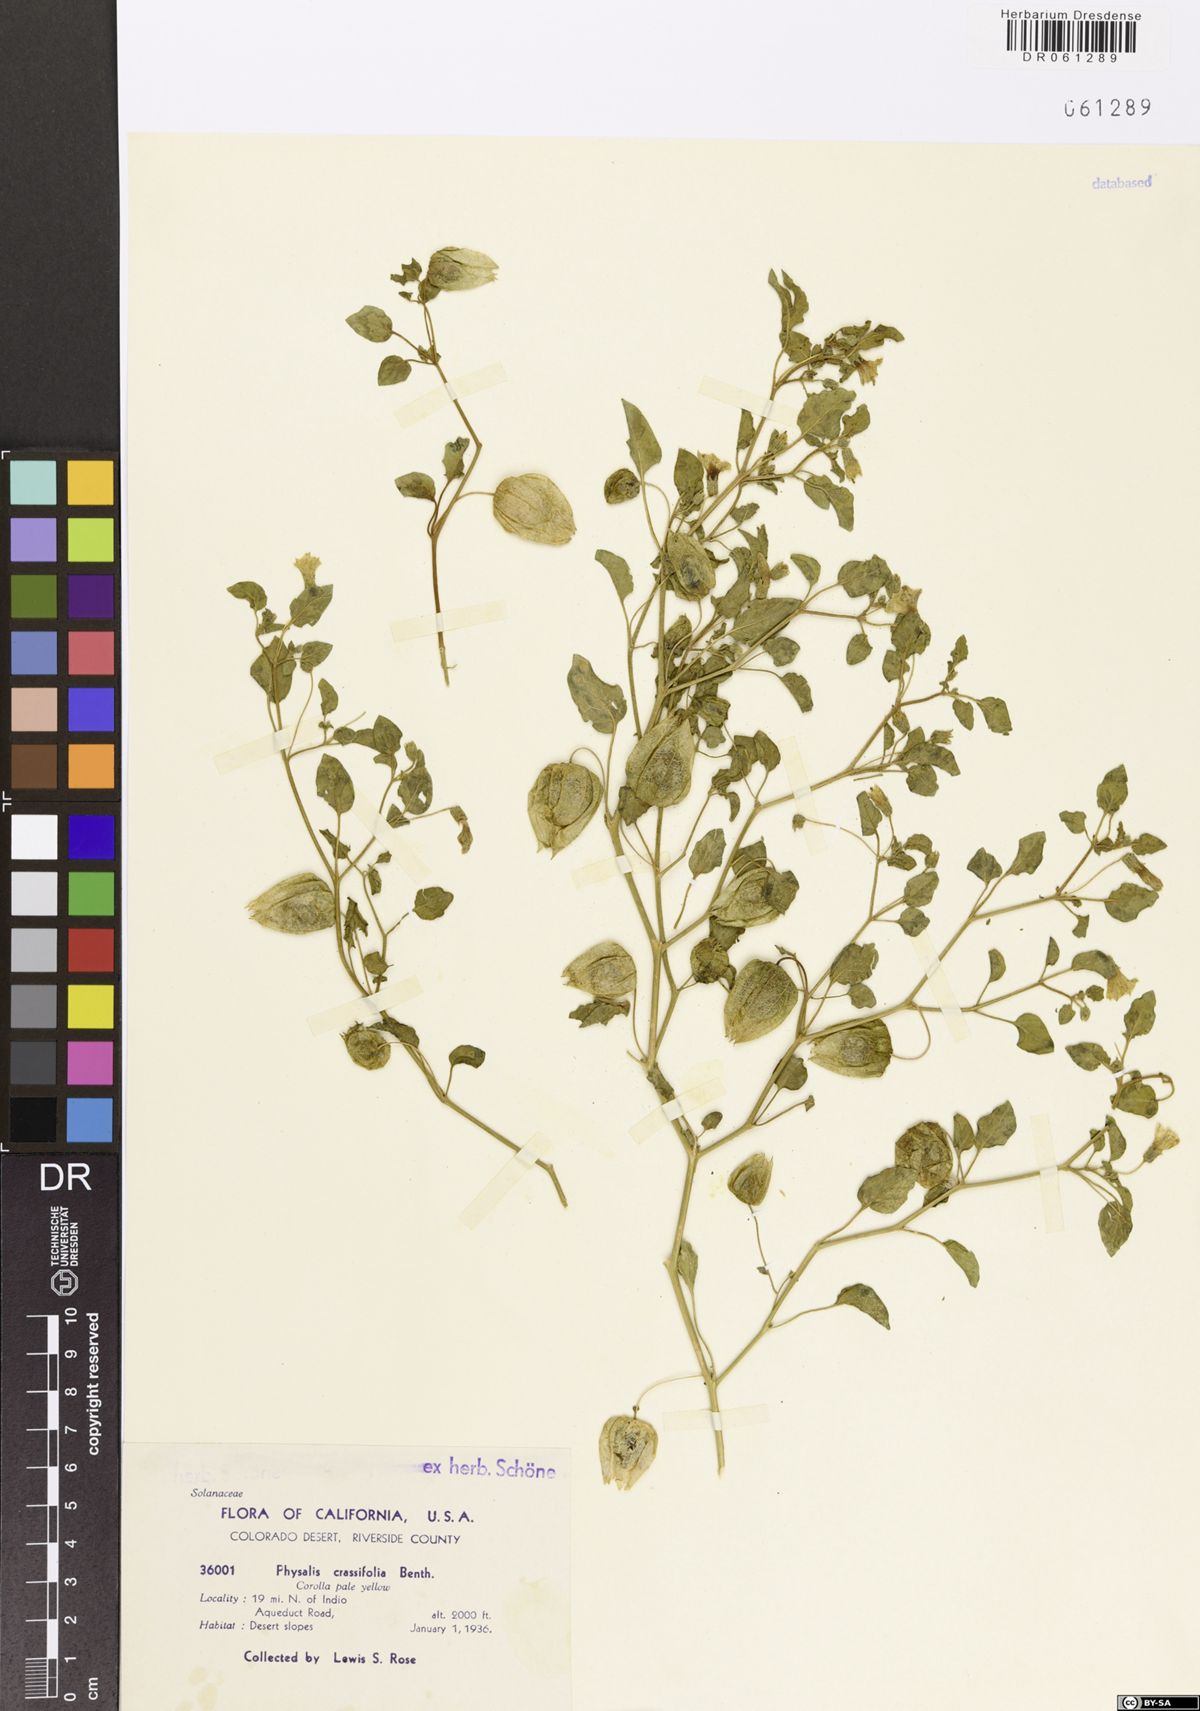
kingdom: Plantae
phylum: Tracheophyta
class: Magnoliopsida
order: Solanales
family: Solanaceae
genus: Physalis
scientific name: Physalis crassifolia
